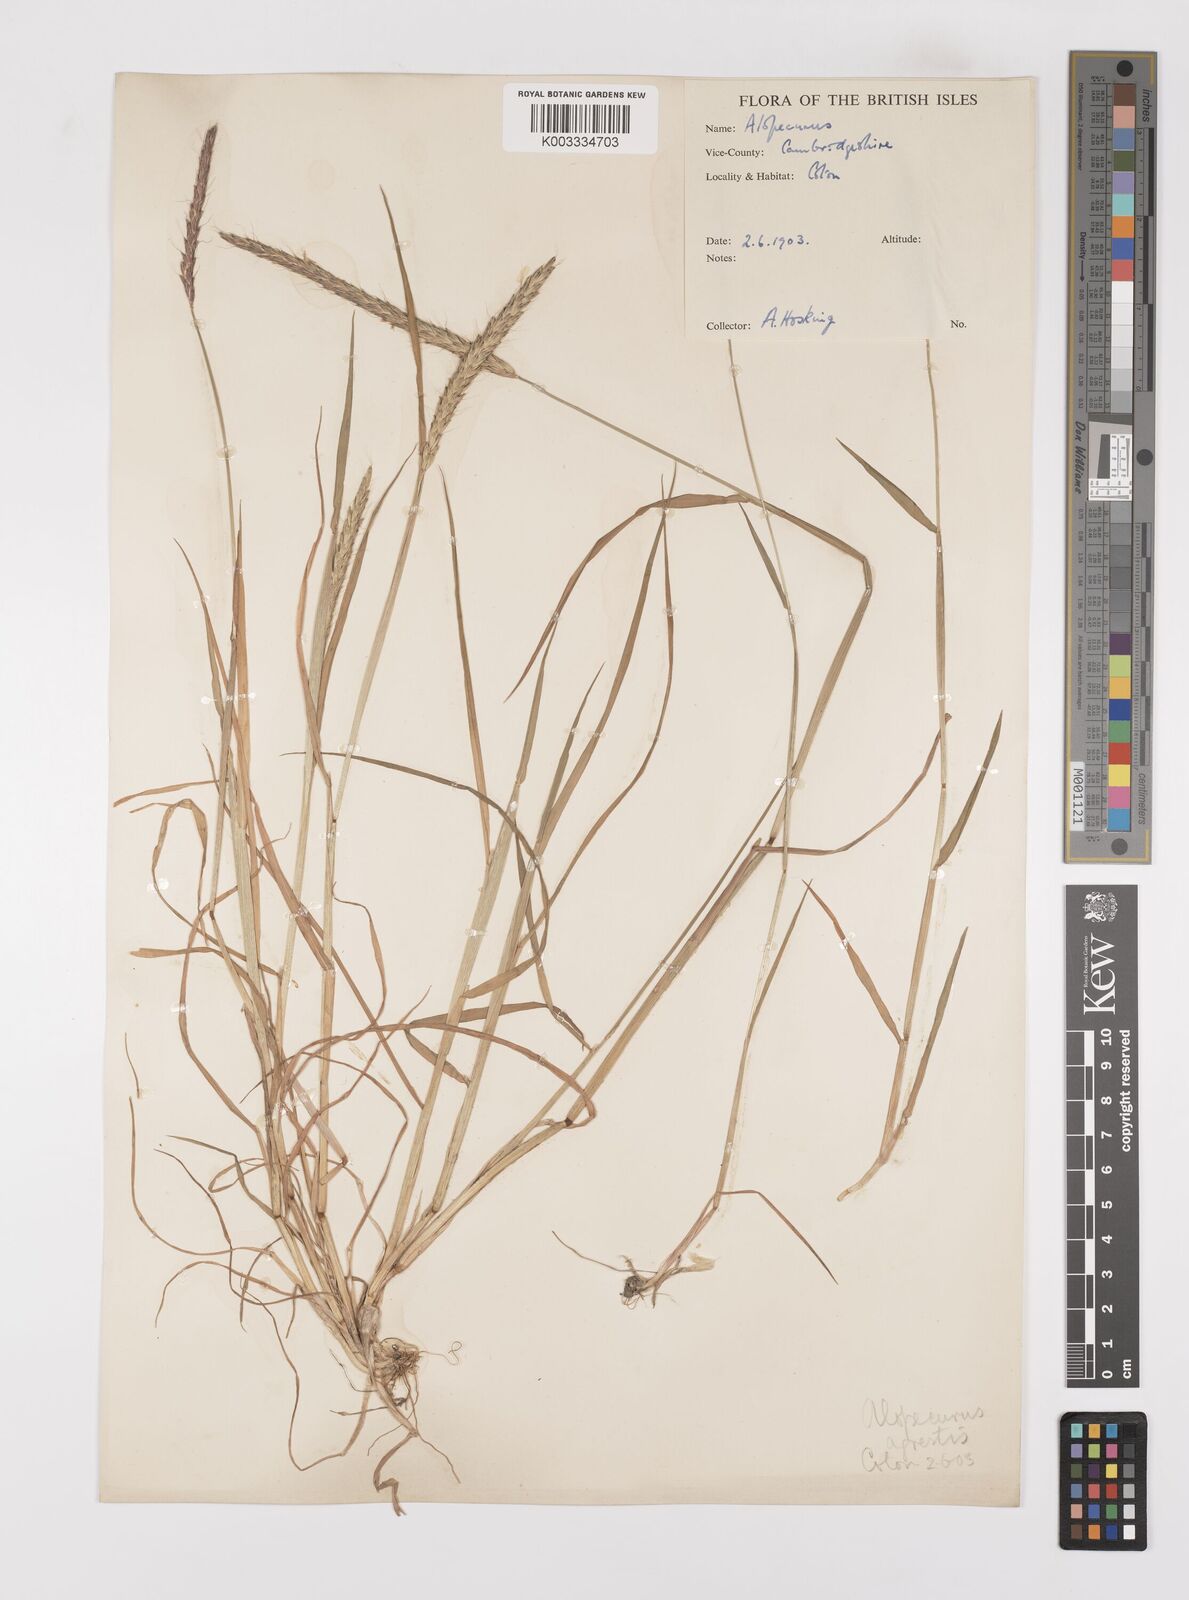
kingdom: Plantae
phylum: Tracheophyta
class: Liliopsida
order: Poales
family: Poaceae
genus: Alopecurus
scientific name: Alopecurus myosuroides
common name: Black-grass
